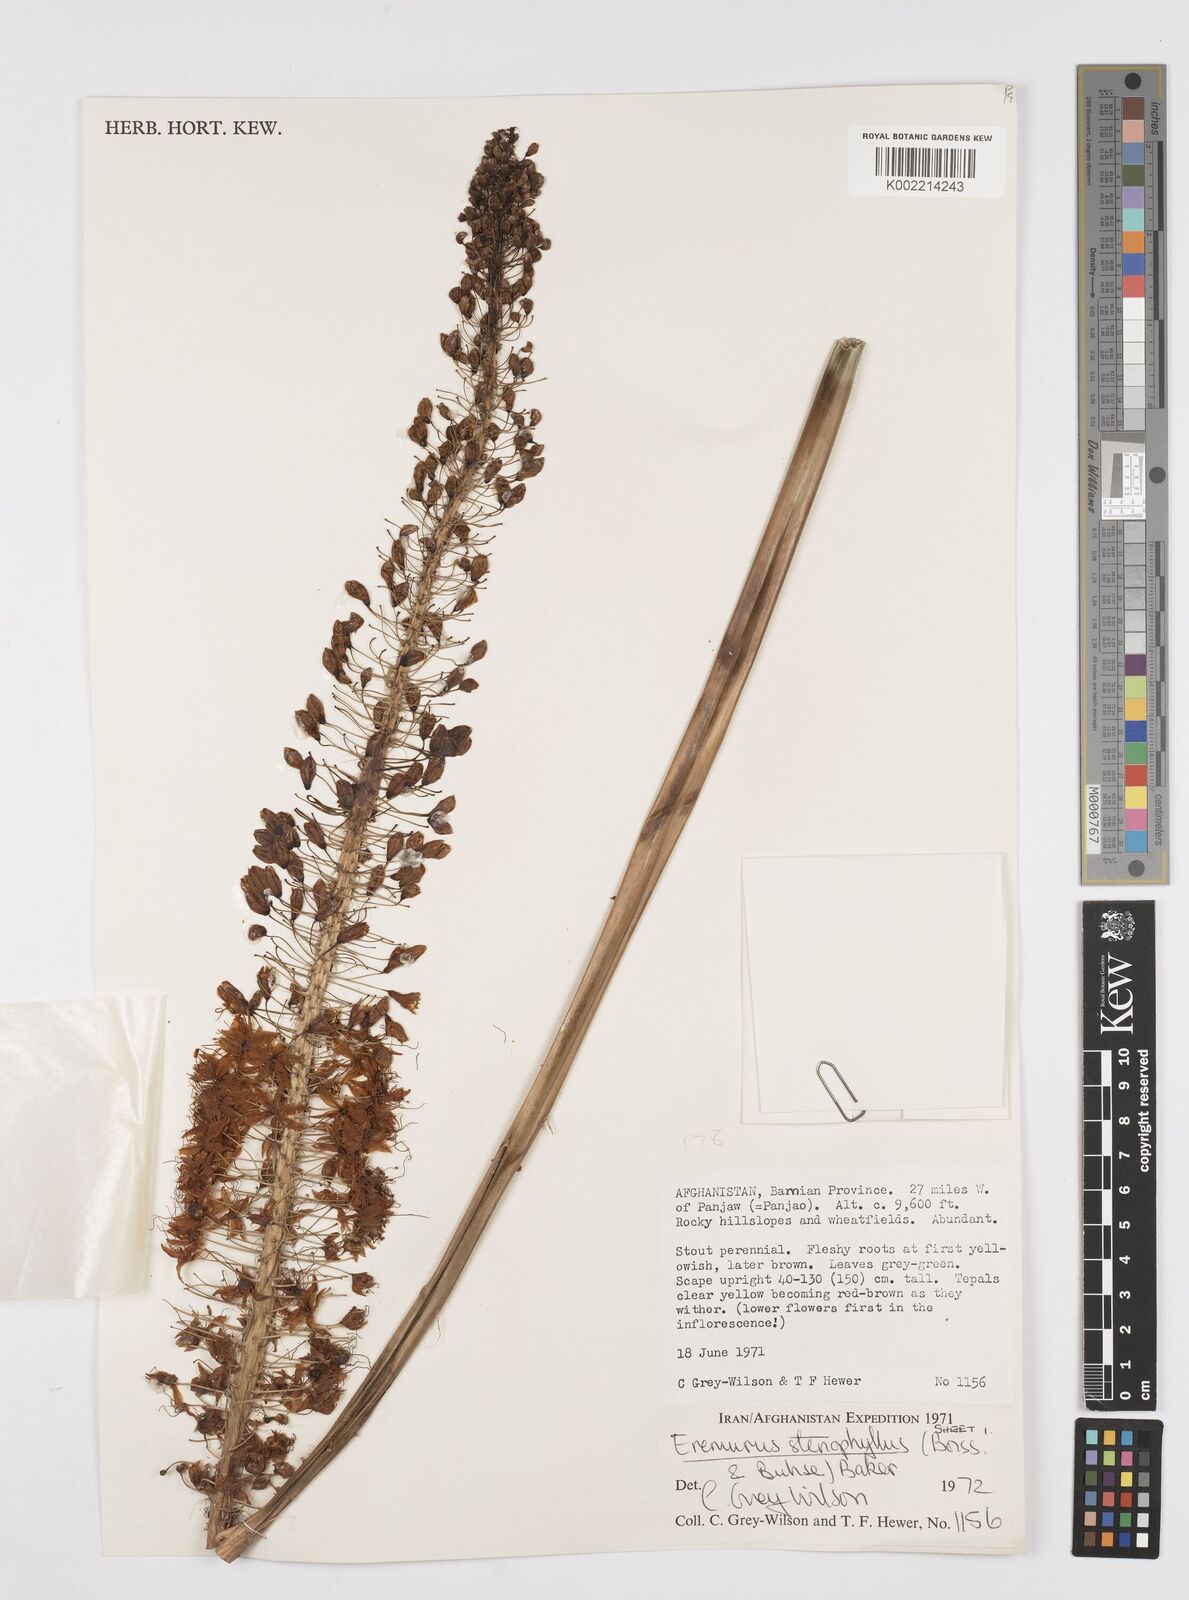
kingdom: Plantae
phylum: Tracheophyta
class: Liliopsida
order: Asparagales
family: Asphodelaceae
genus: Eremurus
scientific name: Eremurus stenophyllus
